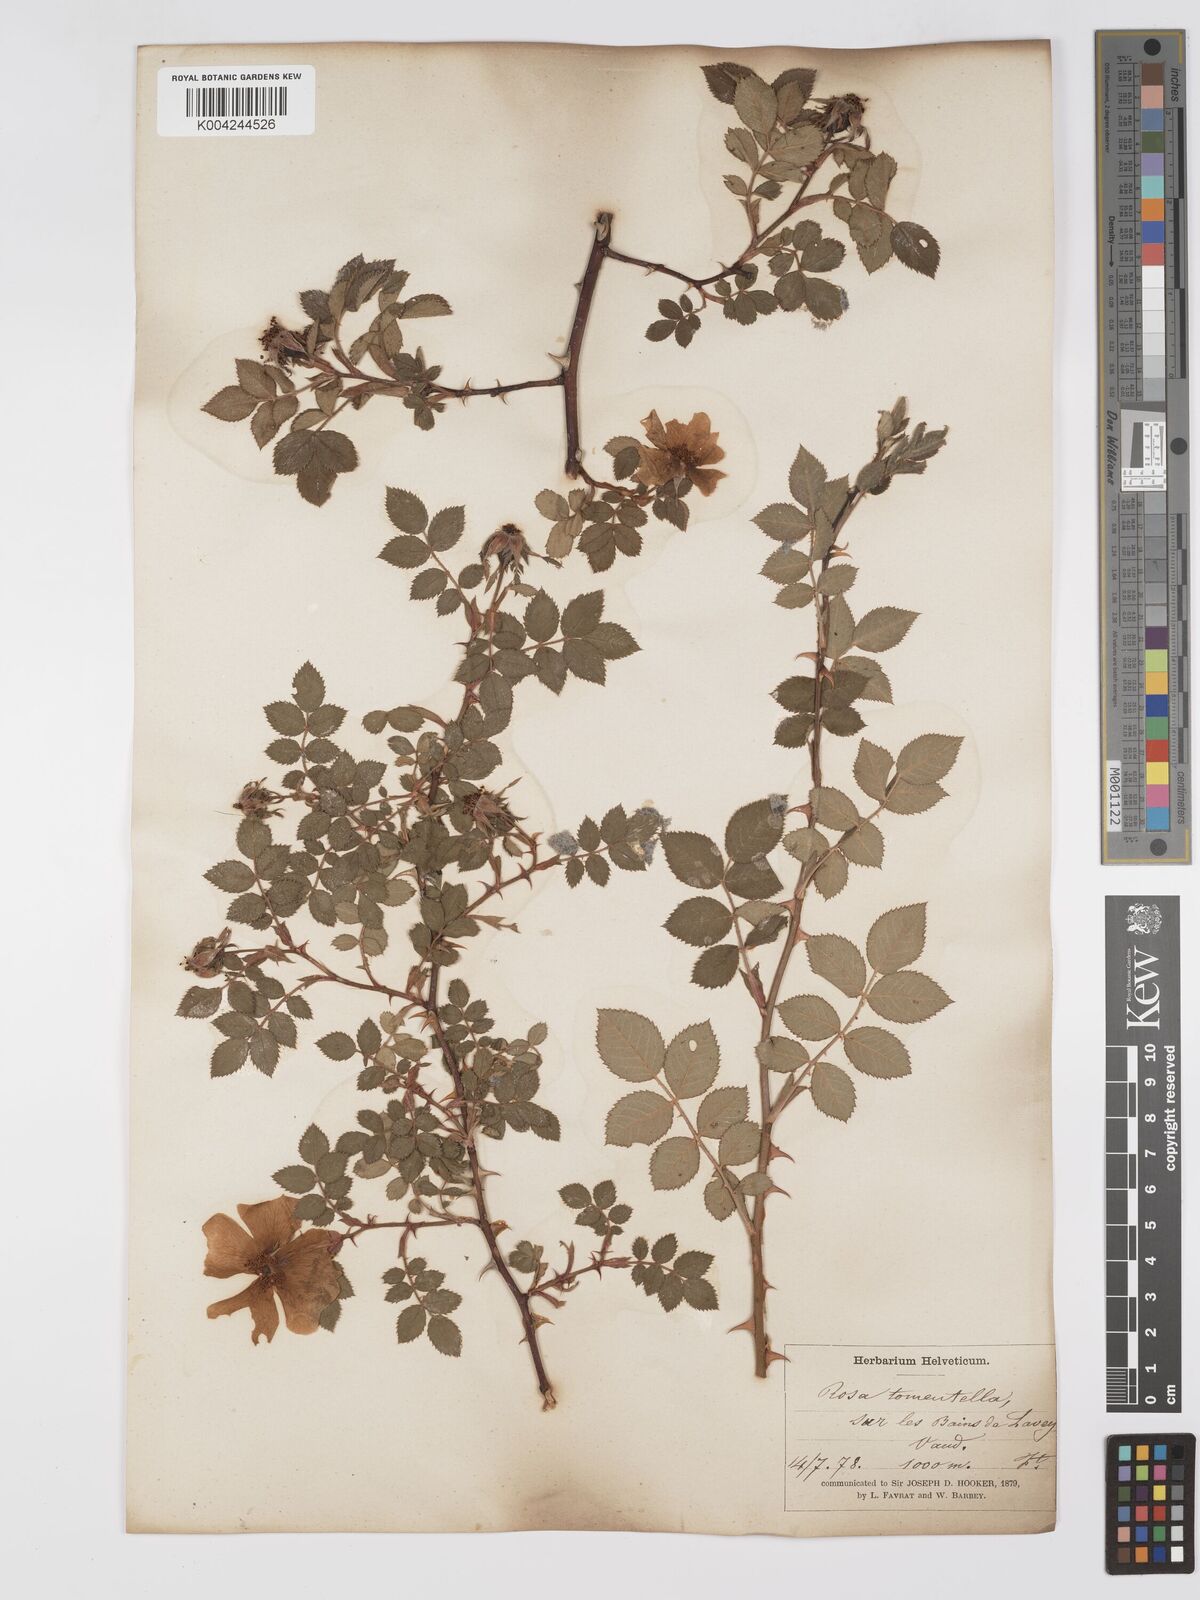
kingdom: Plantae
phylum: Tracheophyta
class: Magnoliopsida
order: Rosales
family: Rosaceae
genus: Rosa
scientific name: Rosa
